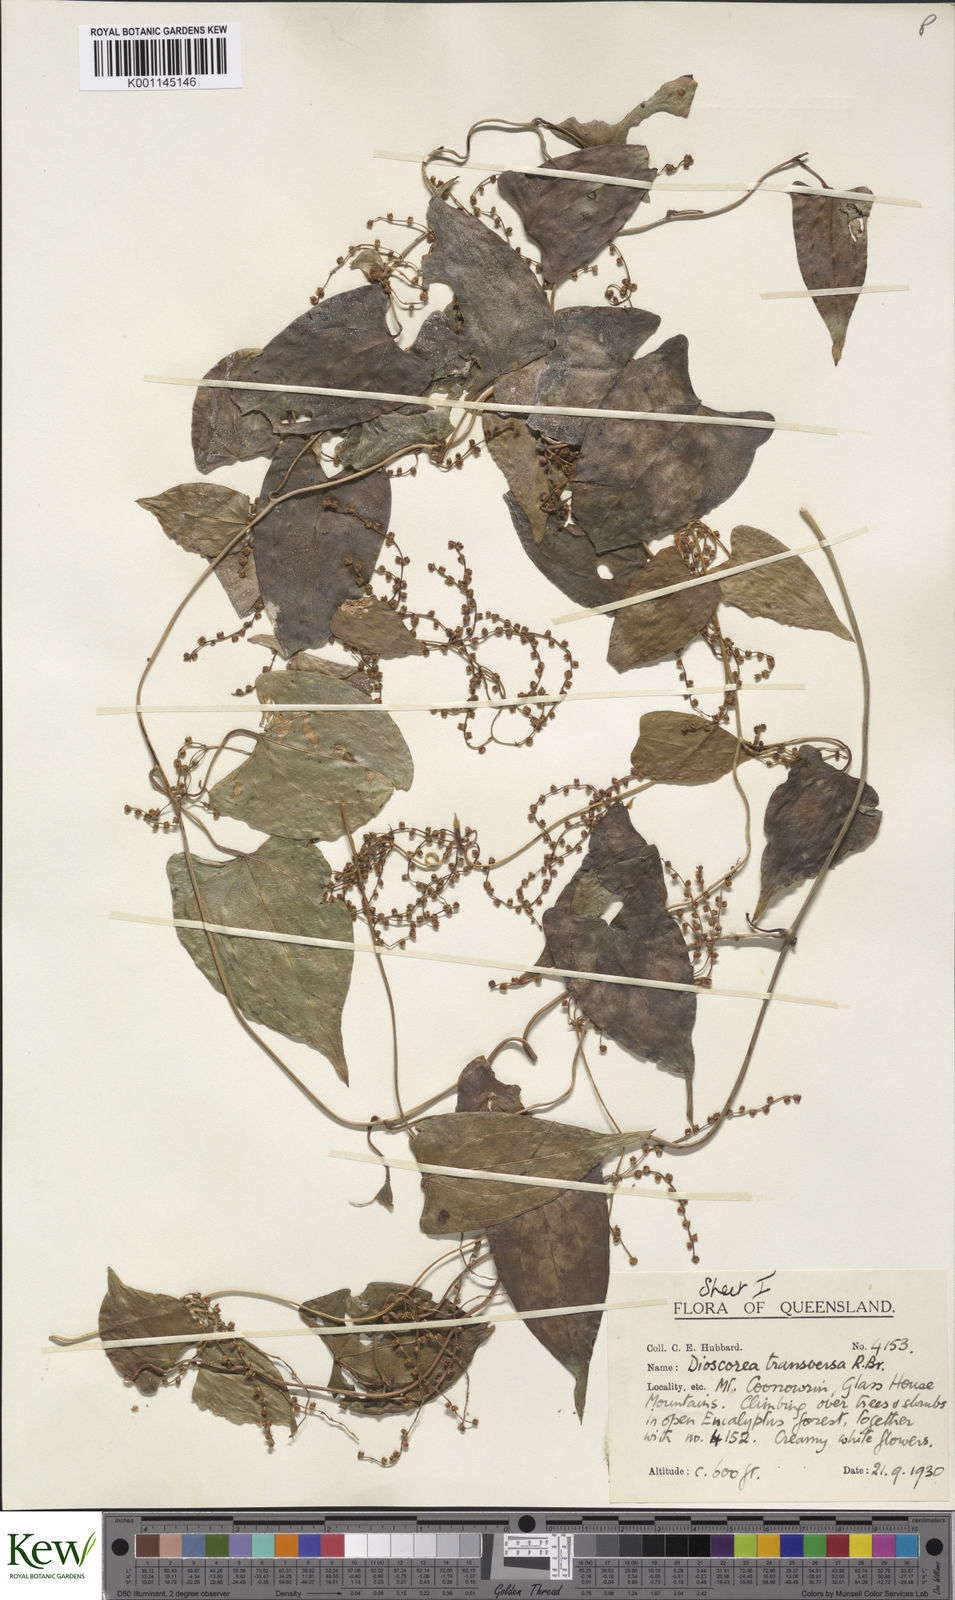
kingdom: Plantae
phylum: Tracheophyta
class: Liliopsida
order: Dioscoreales
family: Dioscoreaceae
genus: Dioscorea
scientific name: Dioscorea transversa
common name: Long yam
